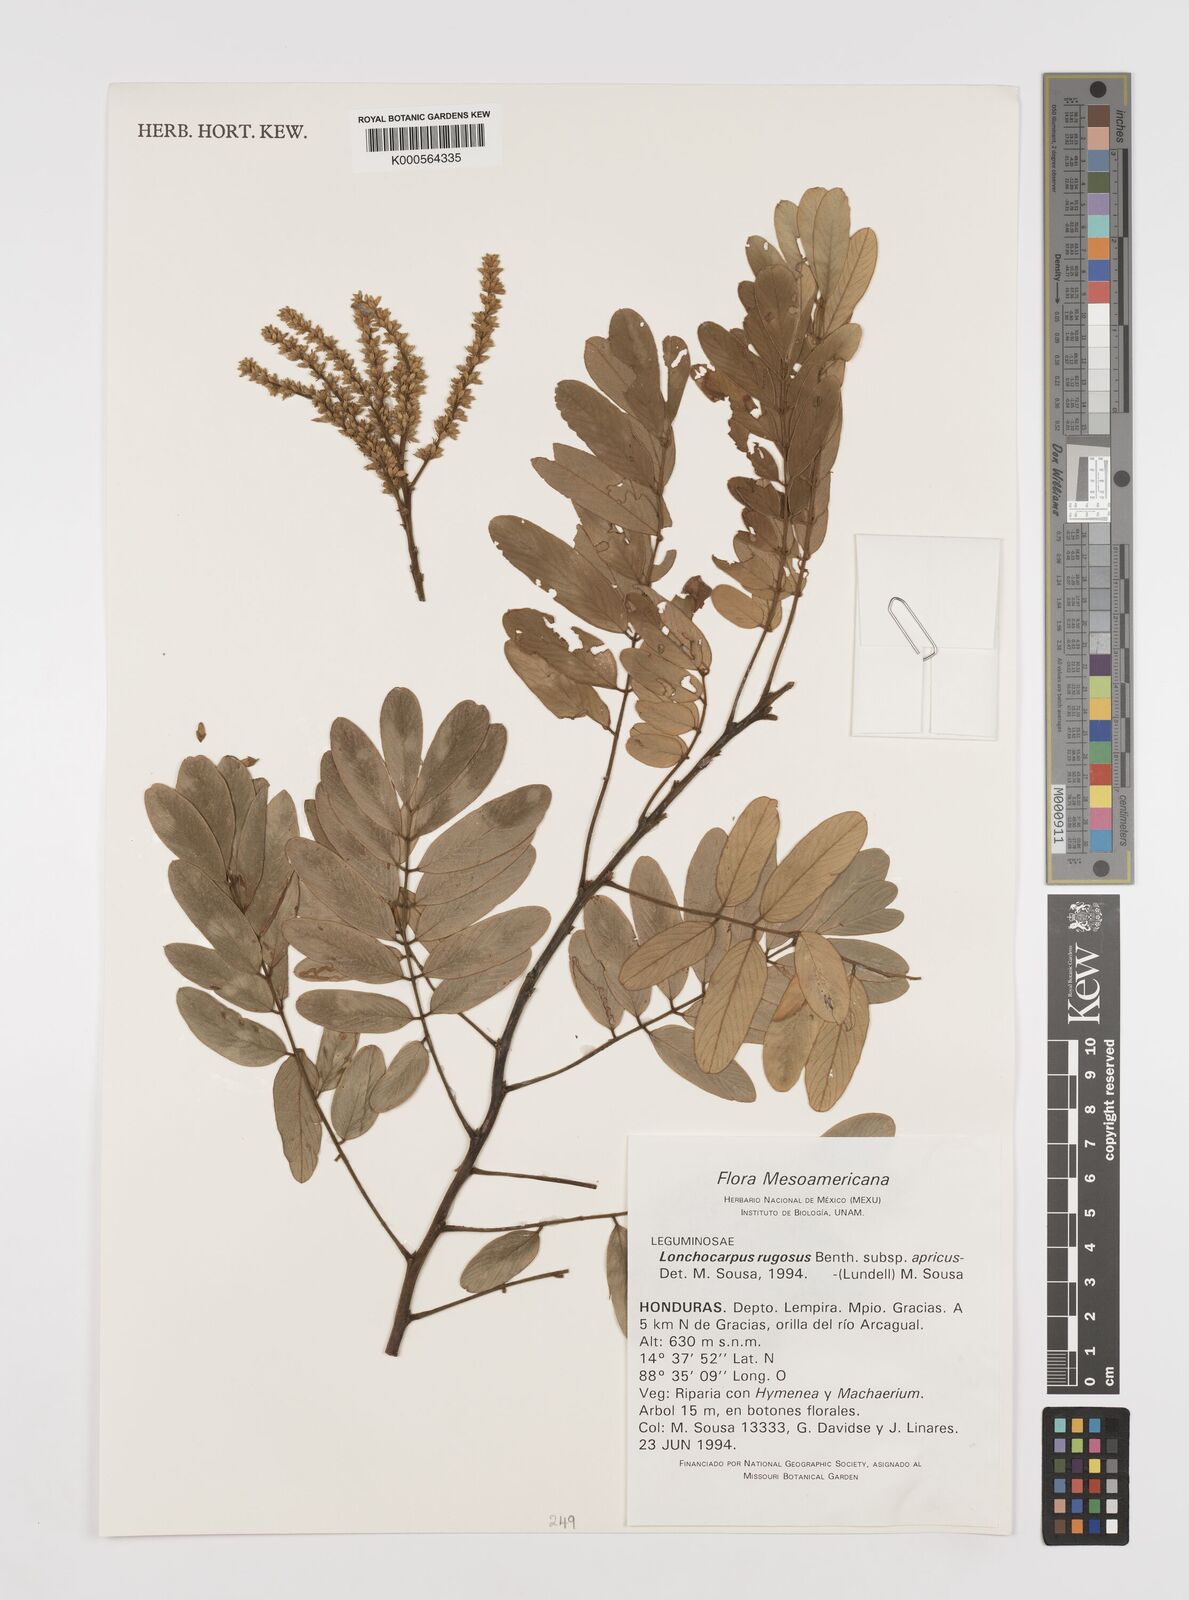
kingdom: Plantae
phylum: Tracheophyta
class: Magnoliopsida
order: Fabales
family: Fabaceae
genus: Lonchocarpus
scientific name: Lonchocarpus rugosus
